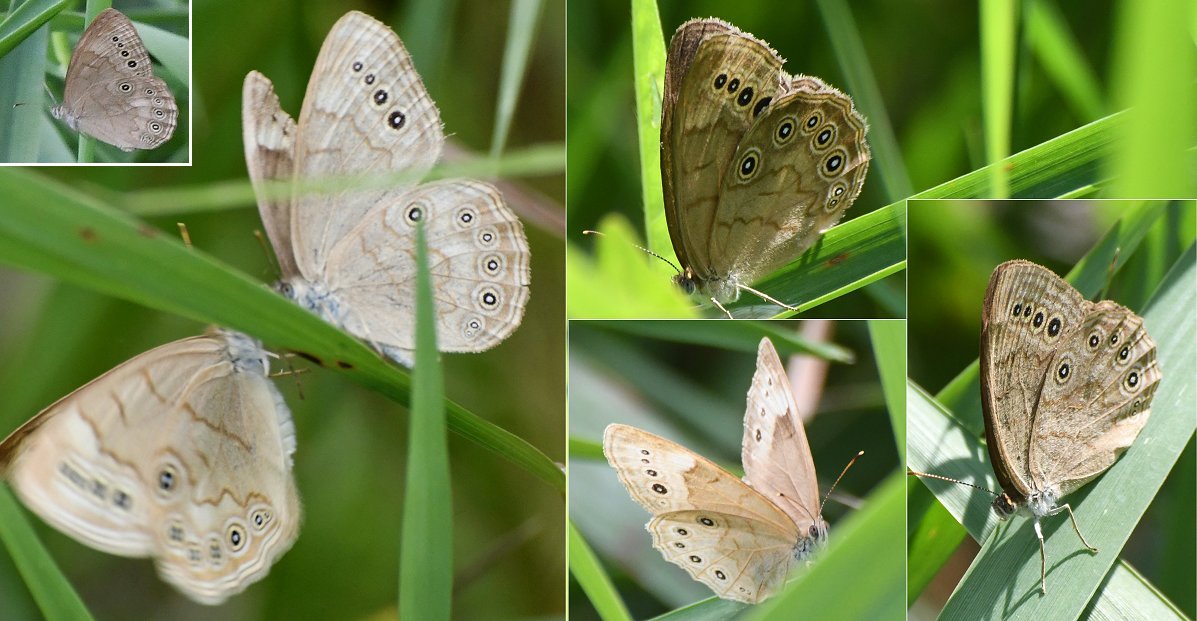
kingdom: Animalia
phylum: Arthropoda
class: Insecta
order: Lepidoptera
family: Nymphalidae
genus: Lethe
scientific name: Lethe eurydice
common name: Eyed Brown
